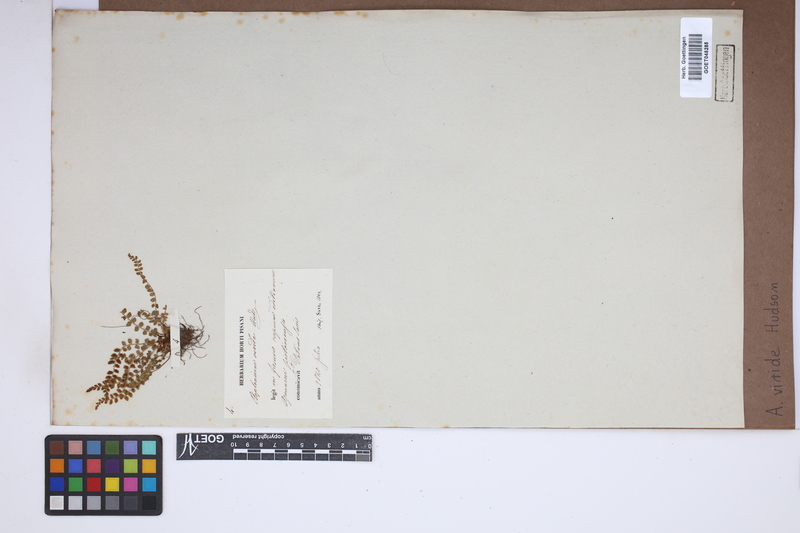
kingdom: Plantae
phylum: Tracheophyta
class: Polypodiopsida
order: Polypodiales
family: Aspleniaceae
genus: Asplenium
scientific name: Asplenium viride
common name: Green spleenwort
